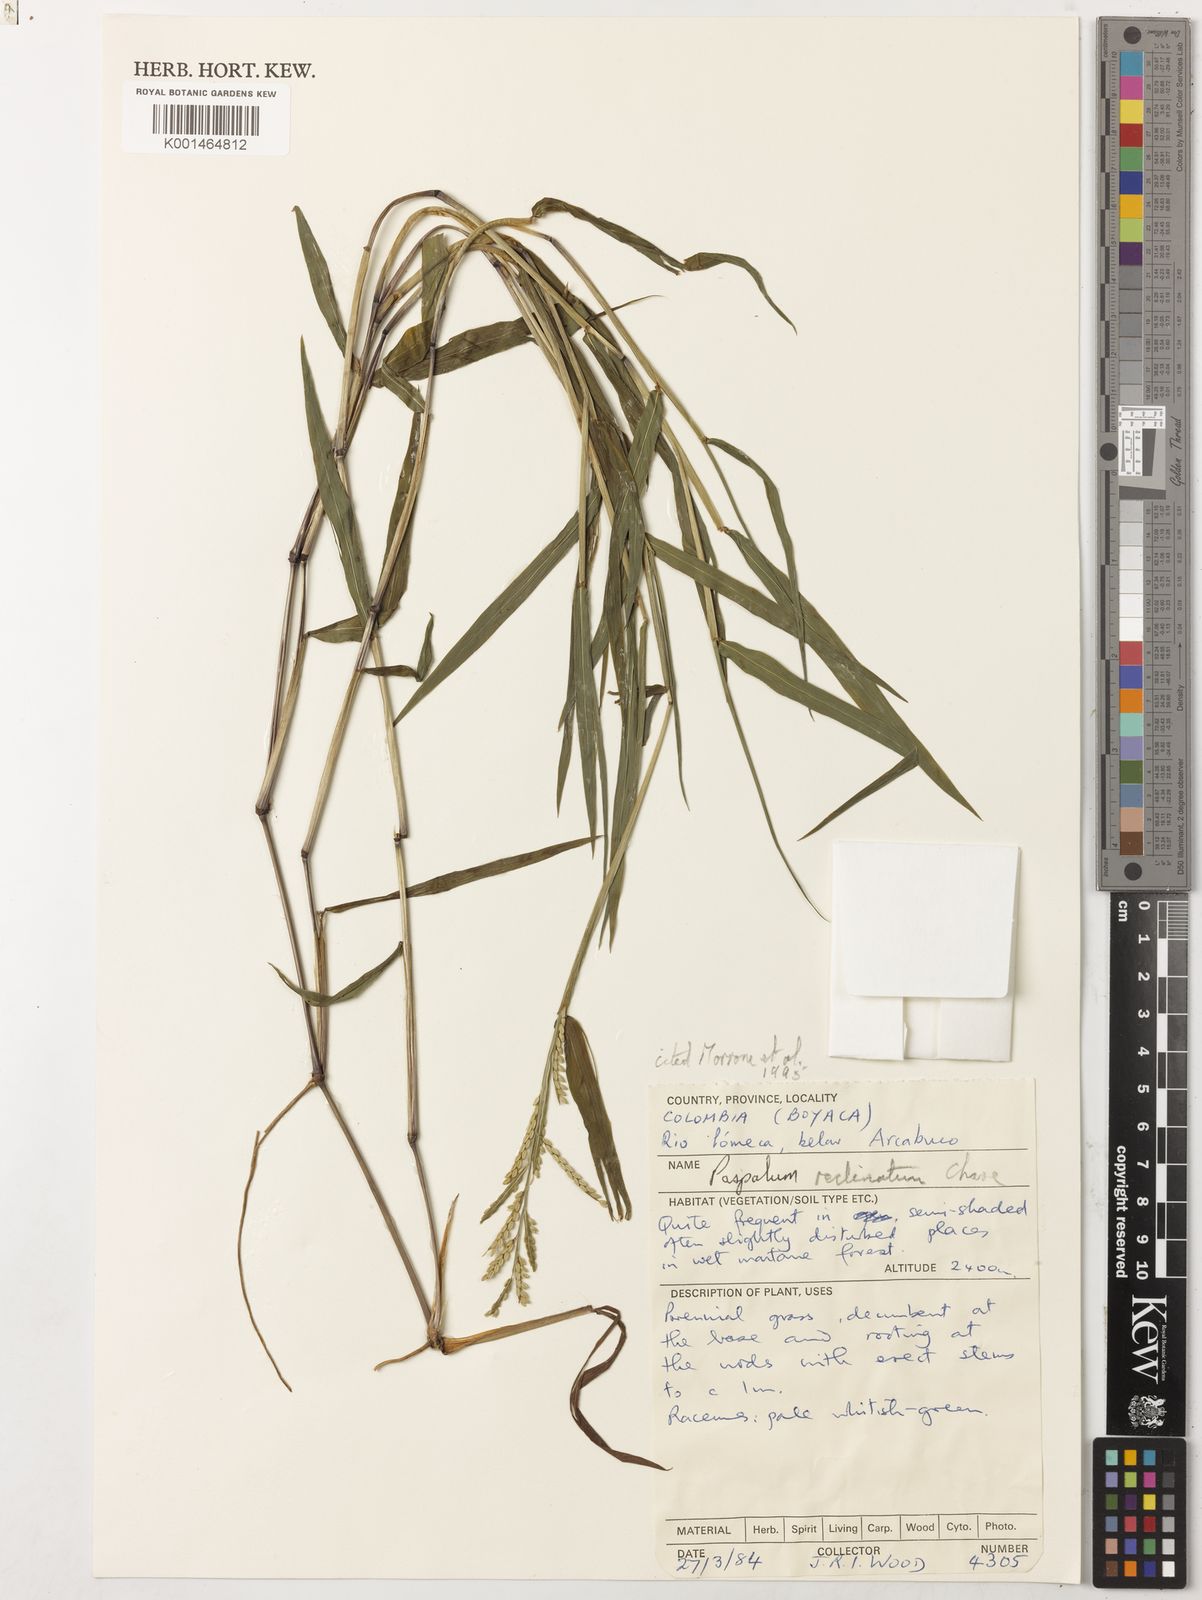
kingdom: Plantae
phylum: Tracheophyta
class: Liliopsida
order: Poales
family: Poaceae
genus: Paspalum
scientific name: Paspalum reclinatum
